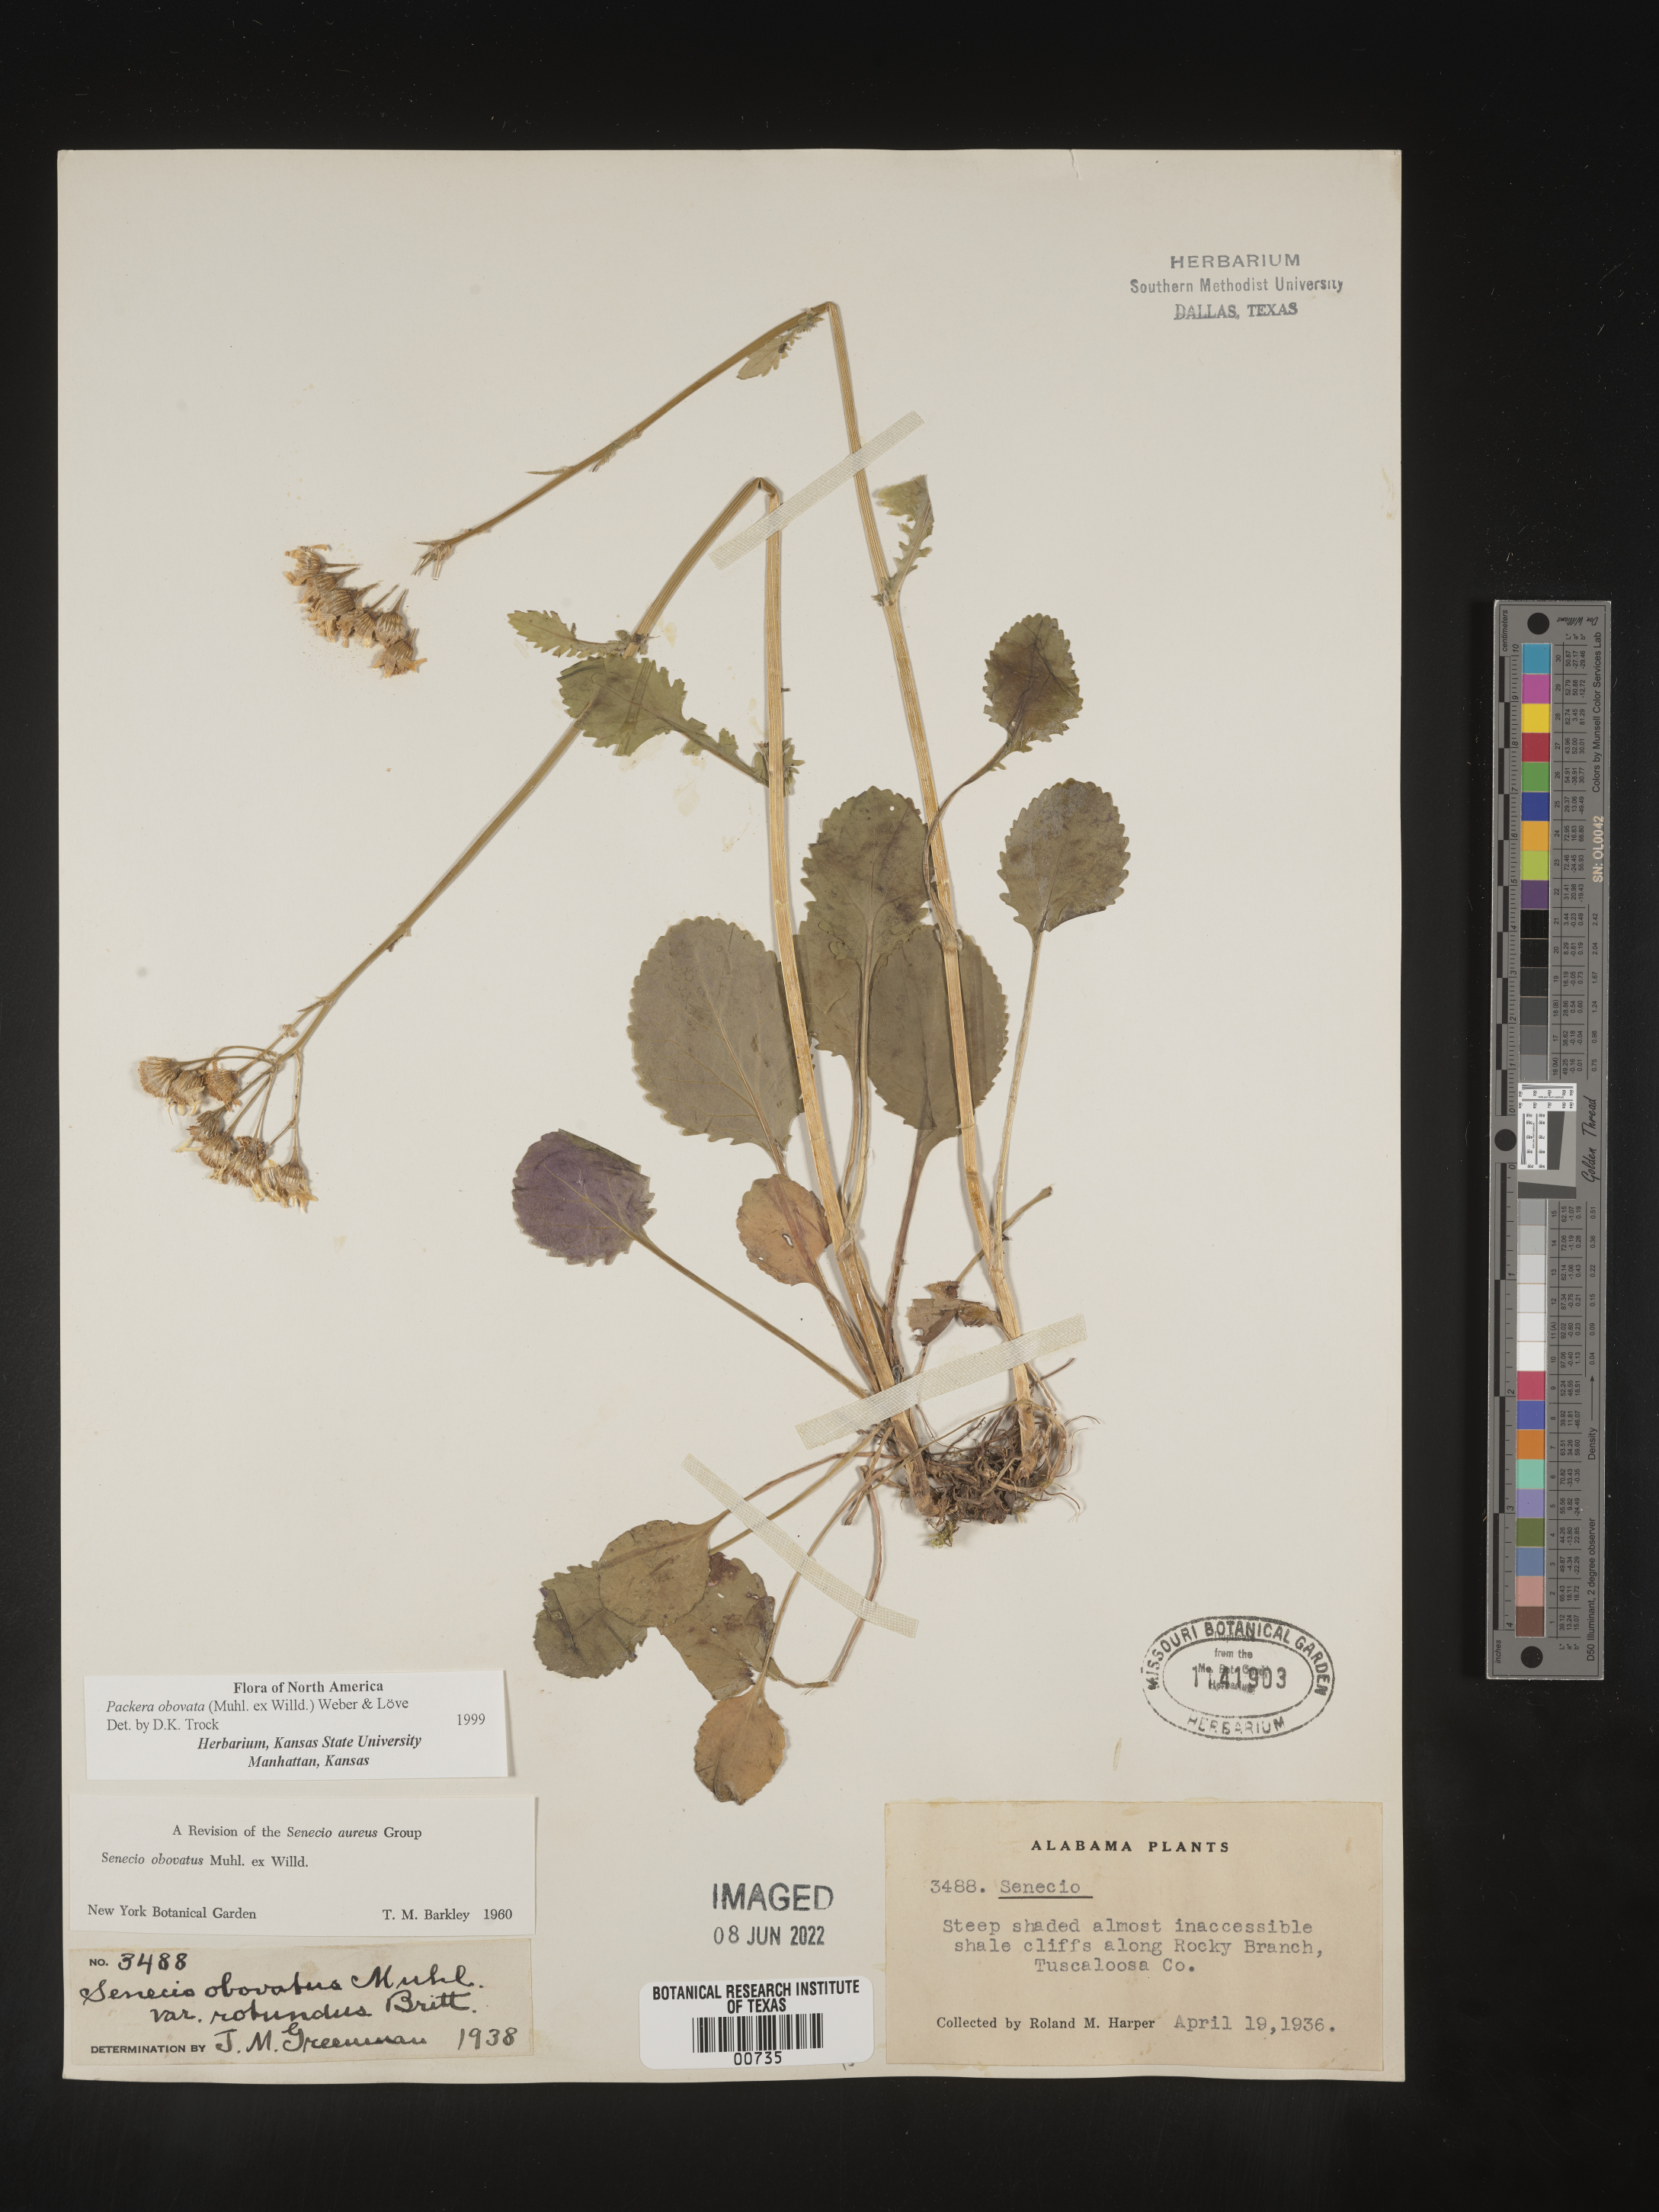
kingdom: Plantae
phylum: Tracheophyta
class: Magnoliopsida
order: Asterales
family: Asteraceae
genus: Packera
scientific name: Packera obovata
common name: Round-leaf ragwort
